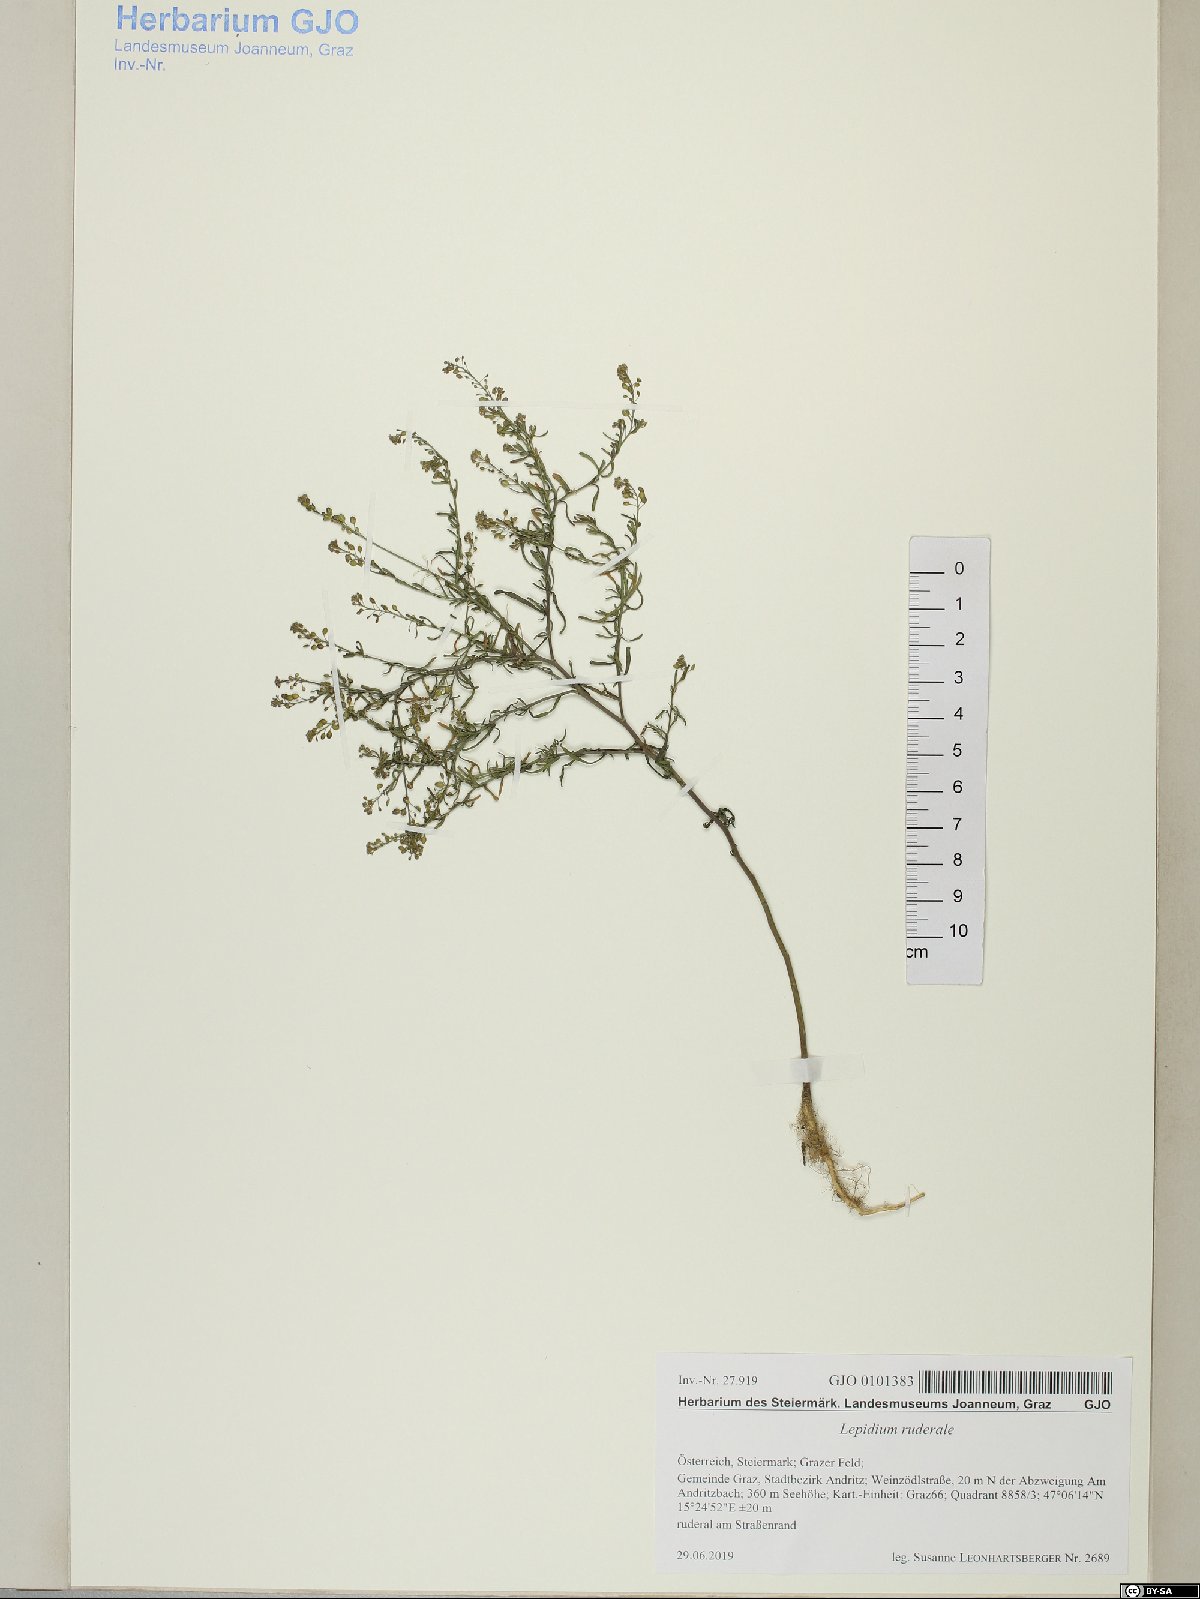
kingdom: Plantae
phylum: Tracheophyta
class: Magnoliopsida
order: Brassicales
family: Brassicaceae
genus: Lepidium
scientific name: Lepidium ruderale
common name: Narrow-leaved pepperwort
